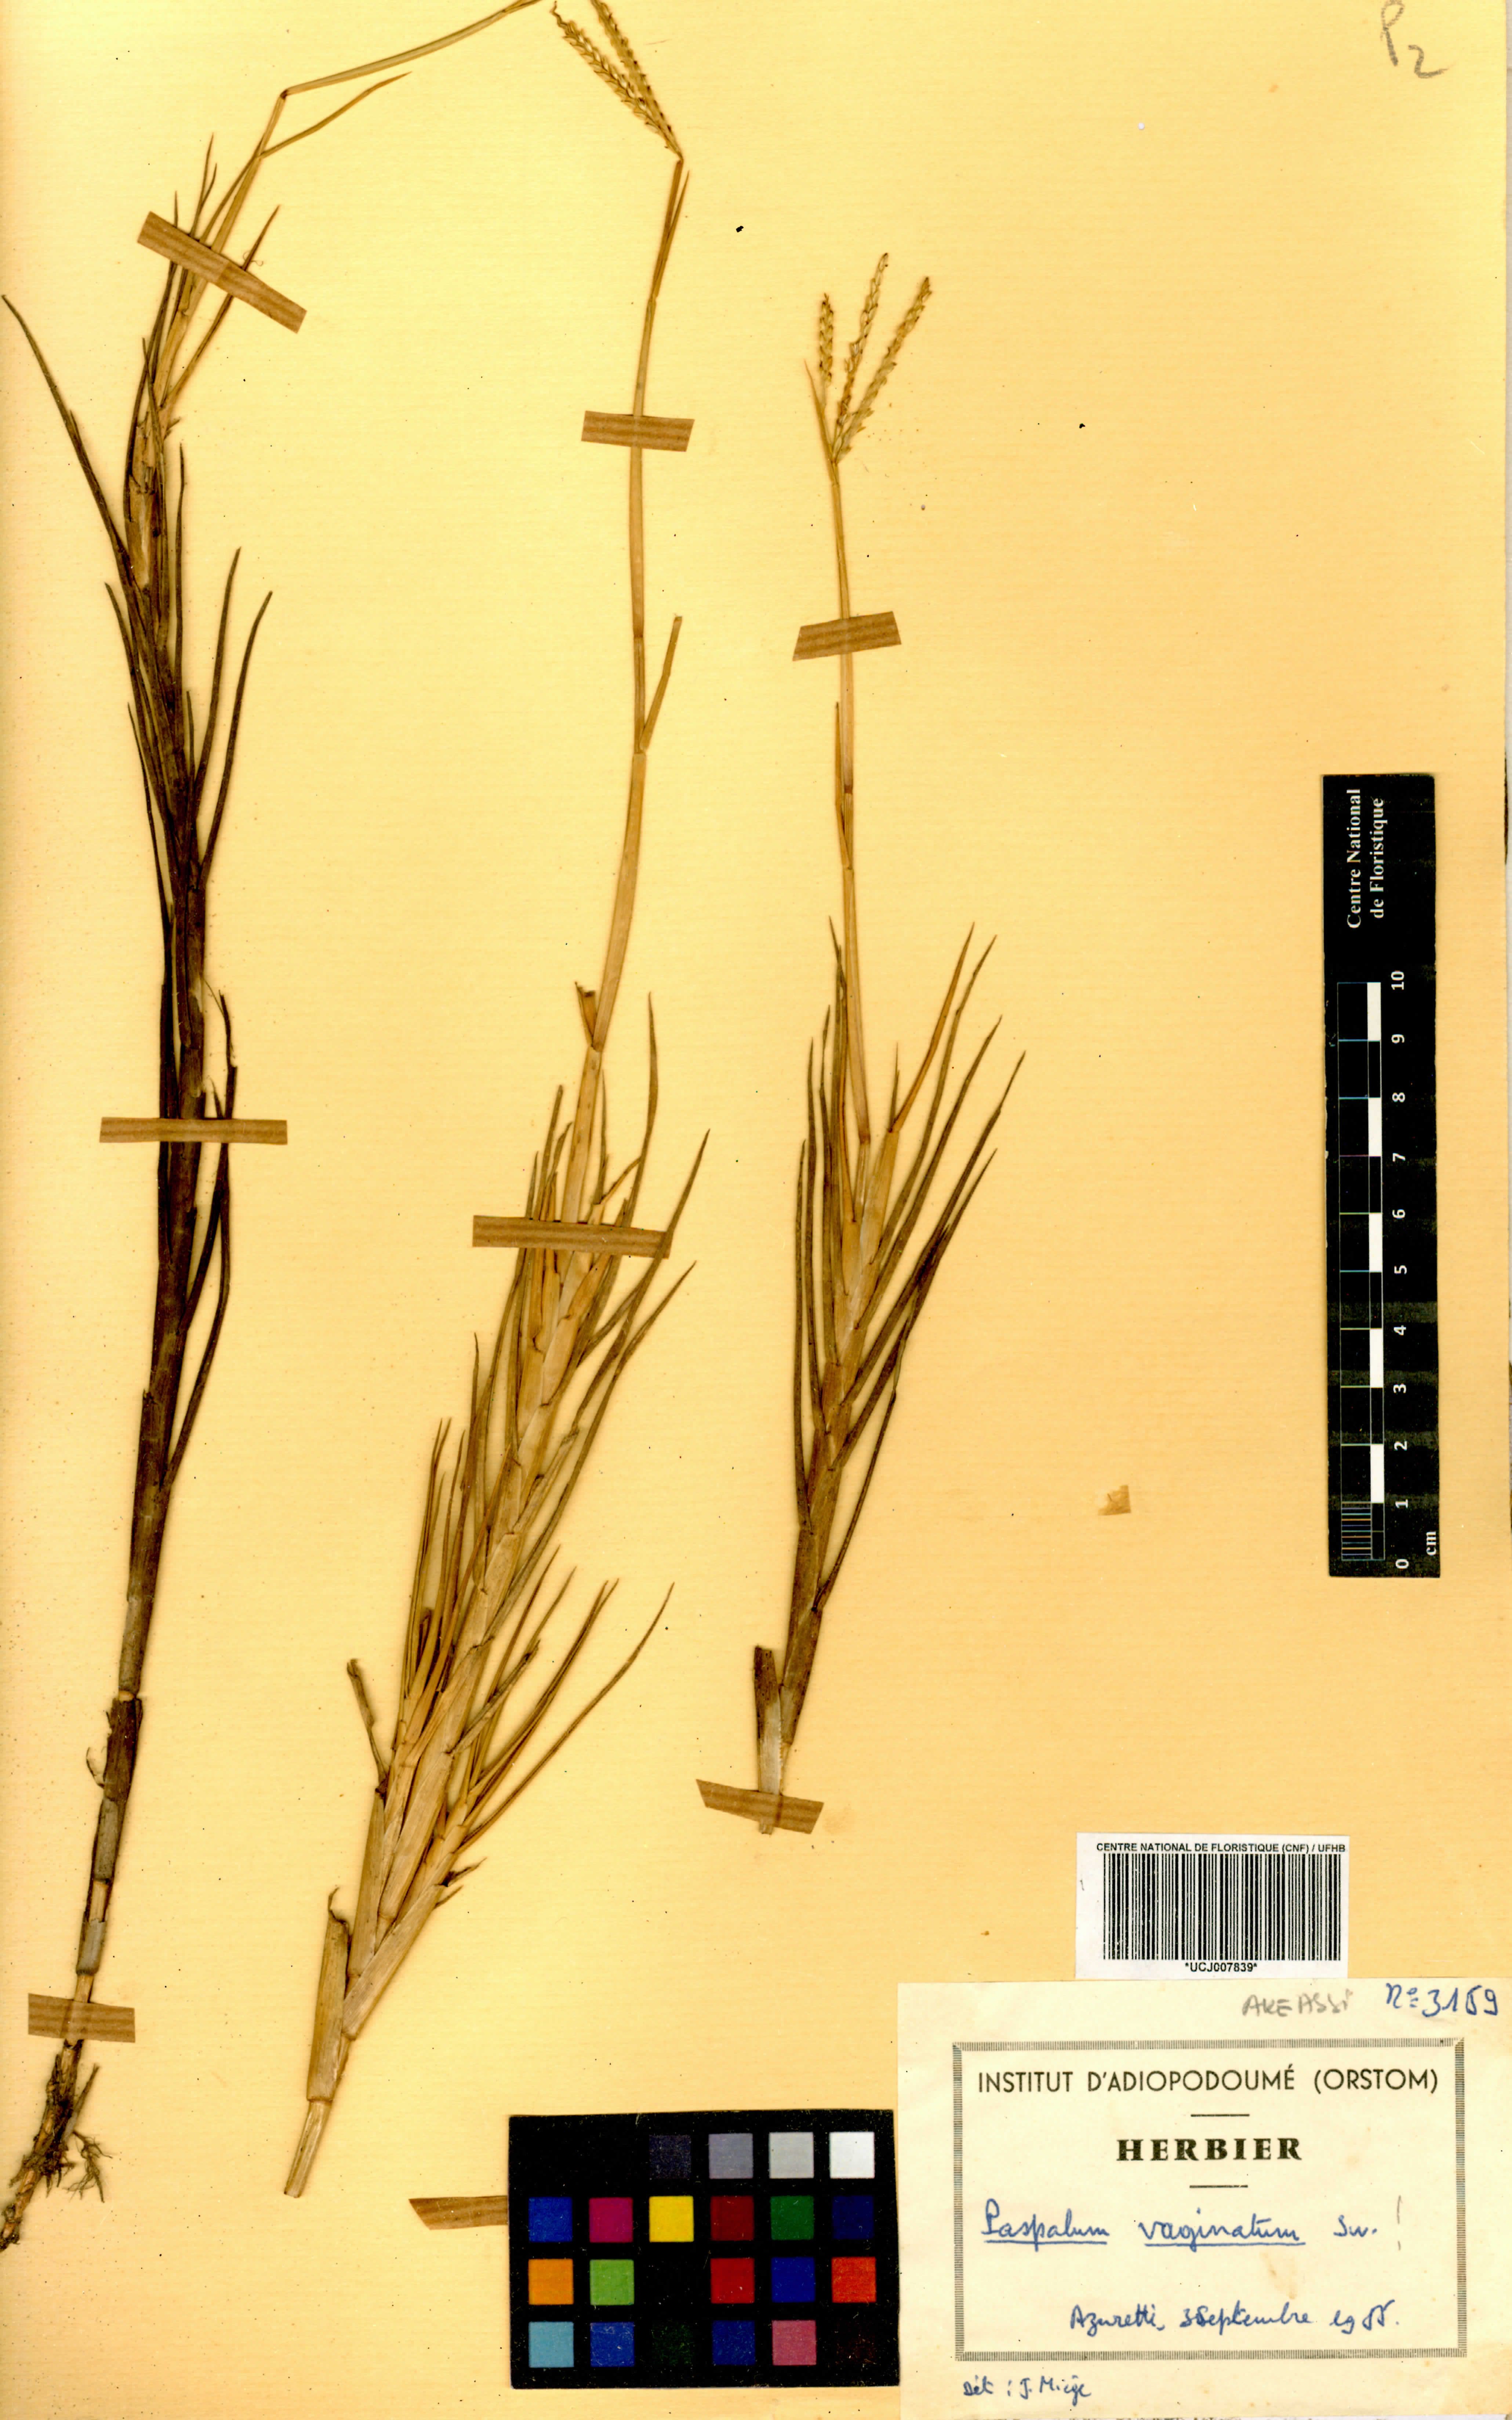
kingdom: Plantae
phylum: Tracheophyta
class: Liliopsida
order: Poales
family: Poaceae
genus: Paspalum
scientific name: Paspalum vaginatum
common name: Seashore paspalum
